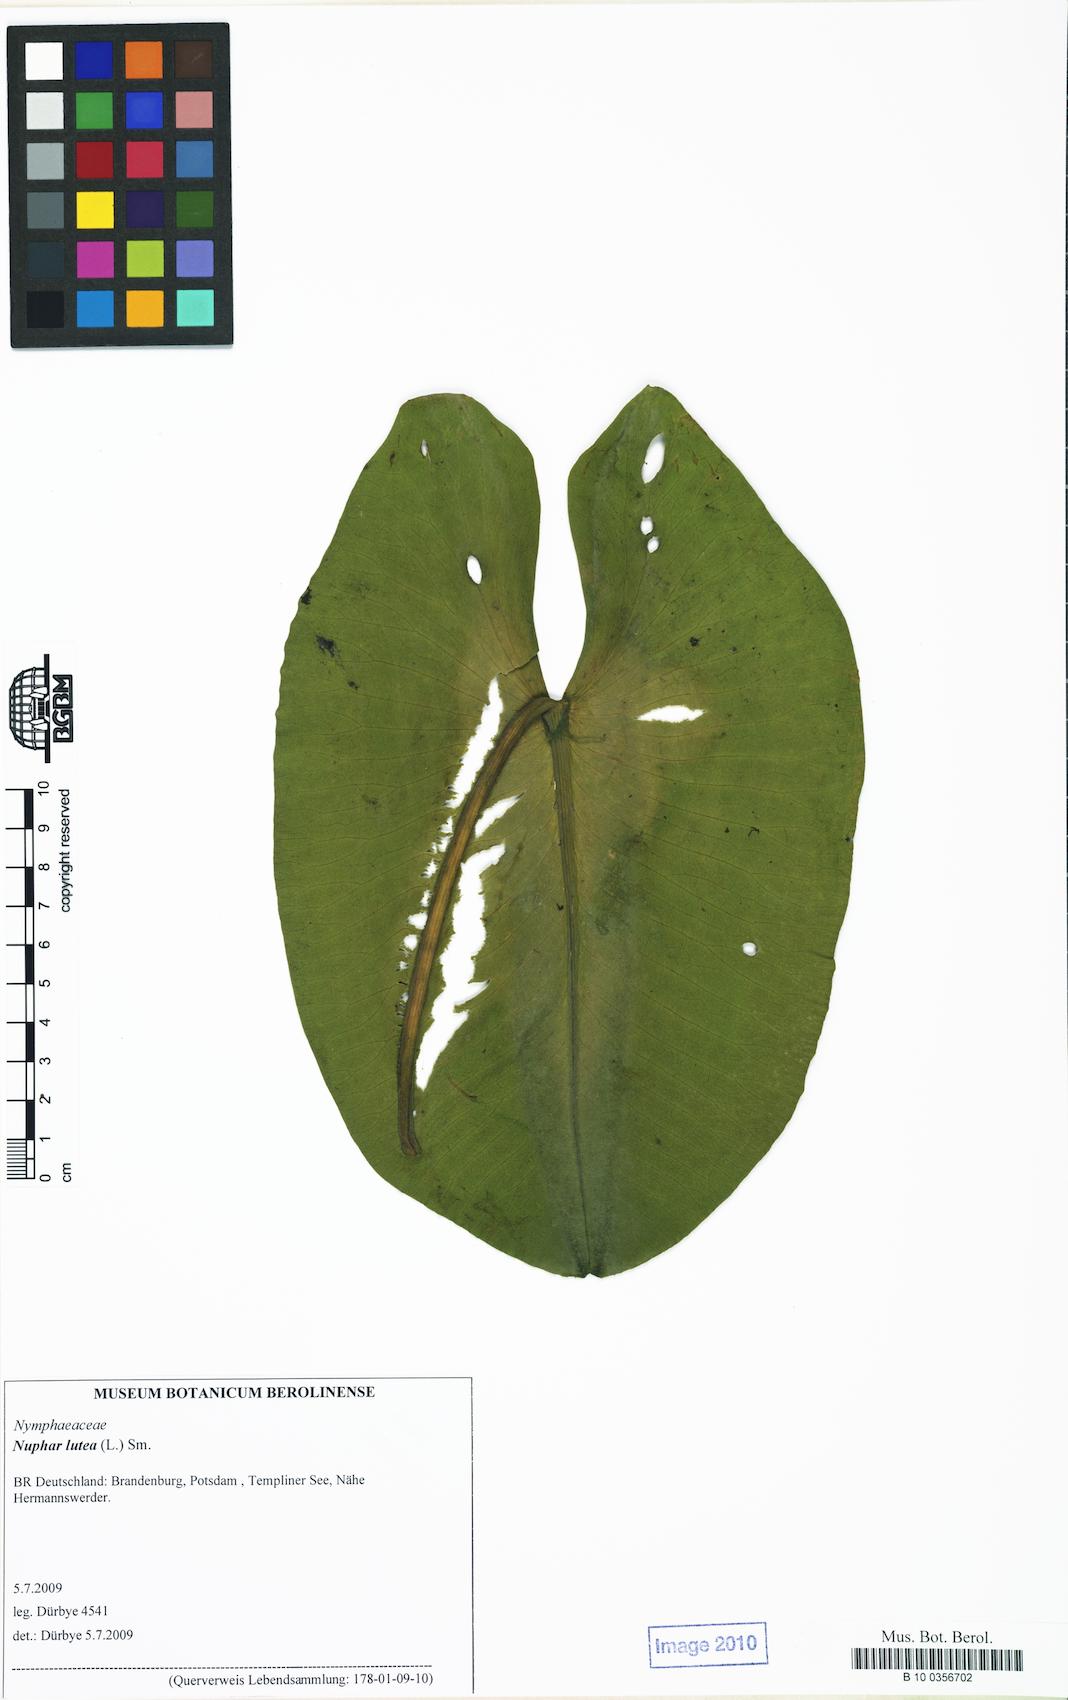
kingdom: Plantae
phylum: Tracheophyta
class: Magnoliopsida
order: Nymphaeales
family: Nymphaeaceae
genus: Nuphar
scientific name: Nuphar lutea
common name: Yellow water-lily
